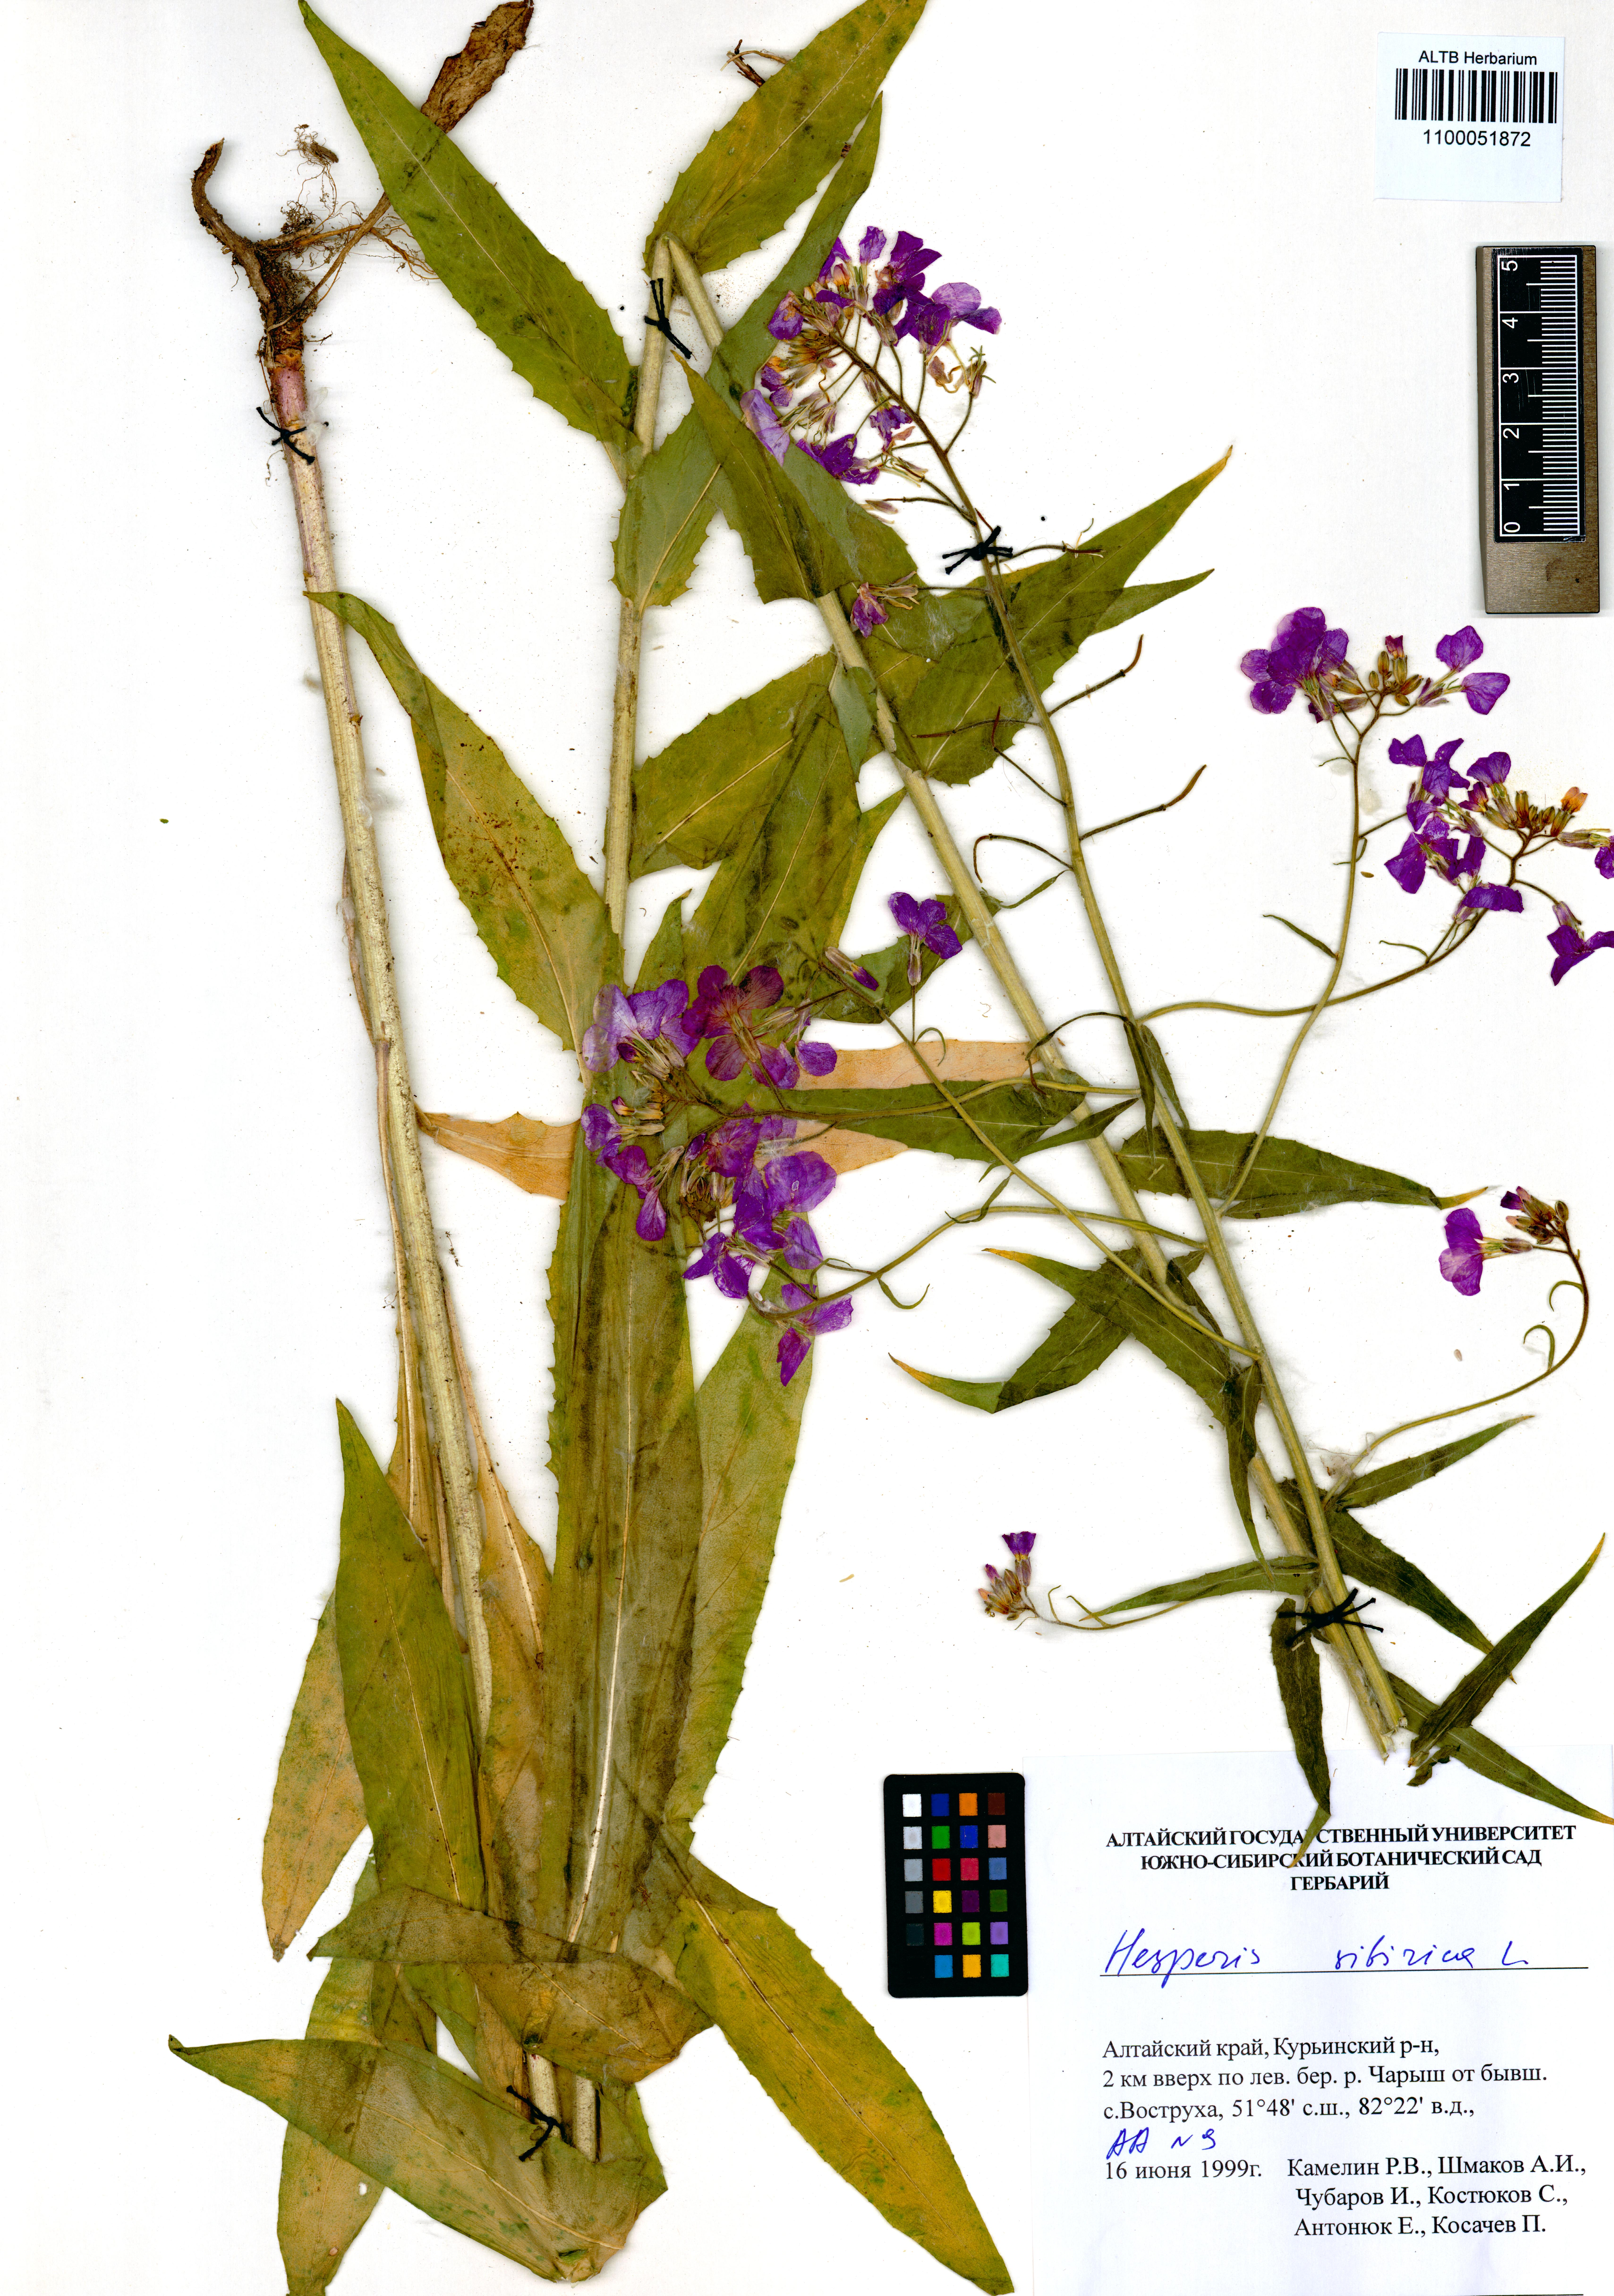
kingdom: Plantae
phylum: Tracheophyta
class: Magnoliopsida
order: Brassicales
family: Brassicaceae
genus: Hesperis
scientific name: Hesperis sibirica
